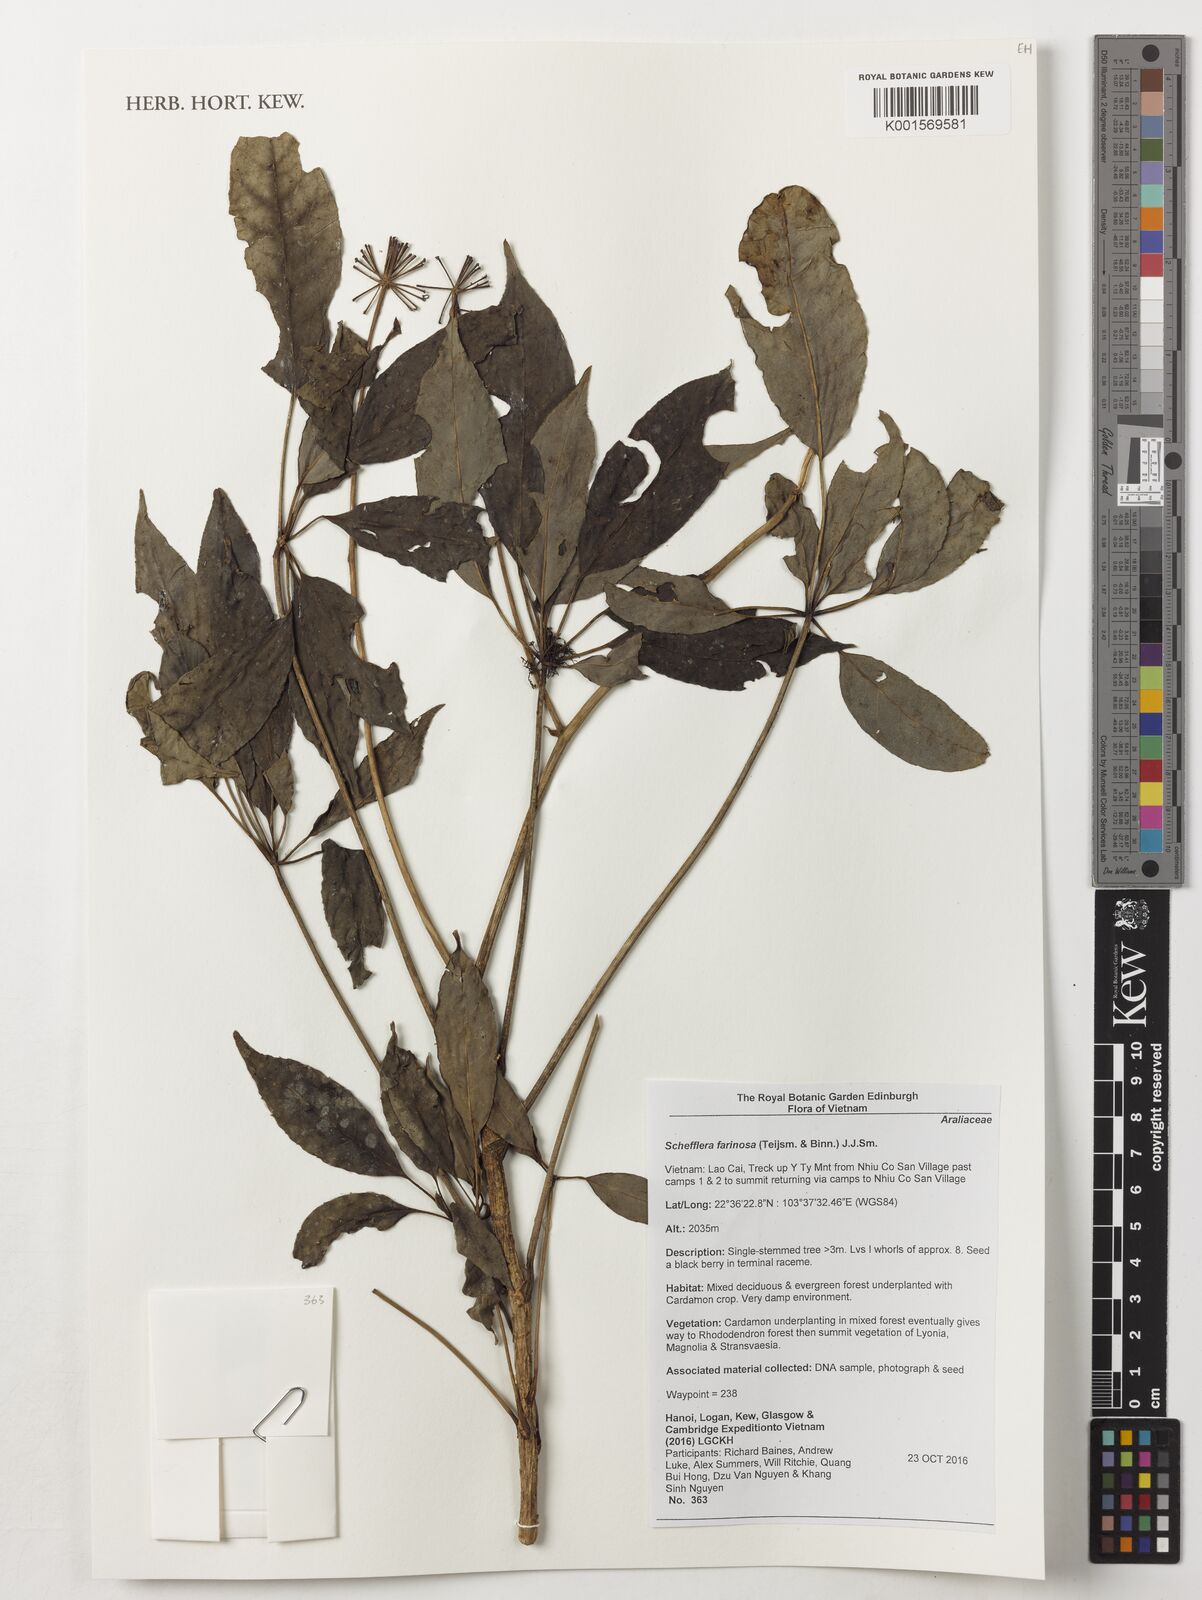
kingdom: Plantae
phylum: Tracheophyta
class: Magnoliopsida
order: Apiales
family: Araliaceae
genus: Heptapleurum
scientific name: Heptapleurum farinosum
